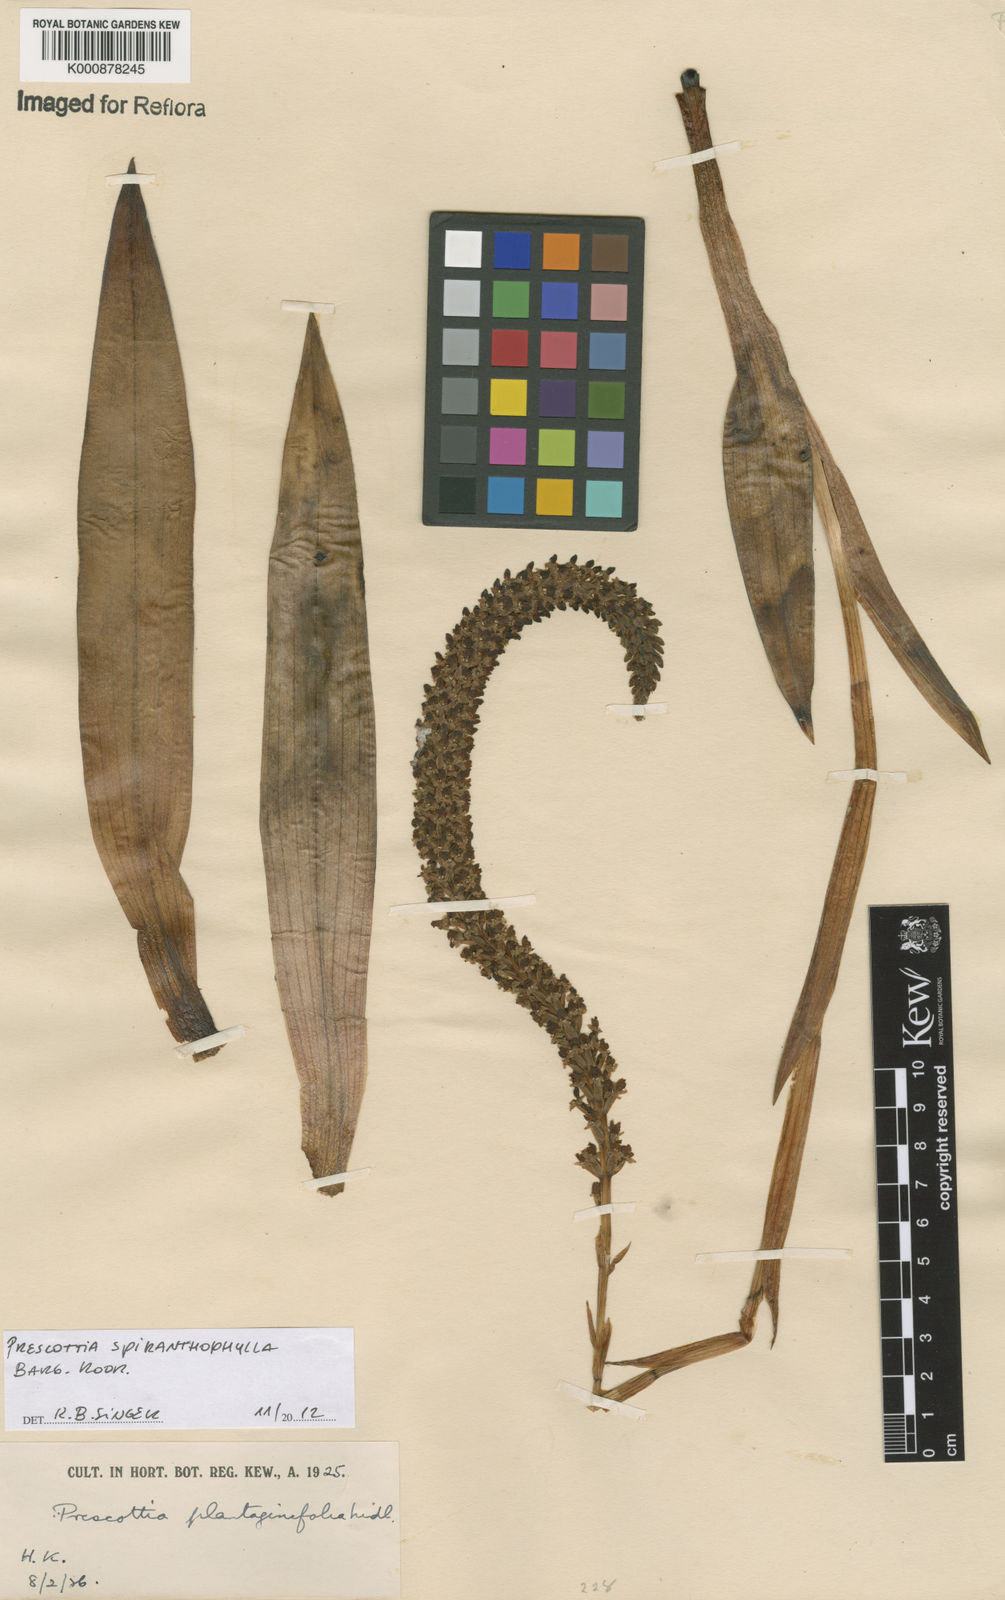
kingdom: Plantae
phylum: Tracheophyta
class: Liliopsida
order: Asparagales
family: Orchidaceae
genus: Prescottia
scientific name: Prescottia spiranthophylla
